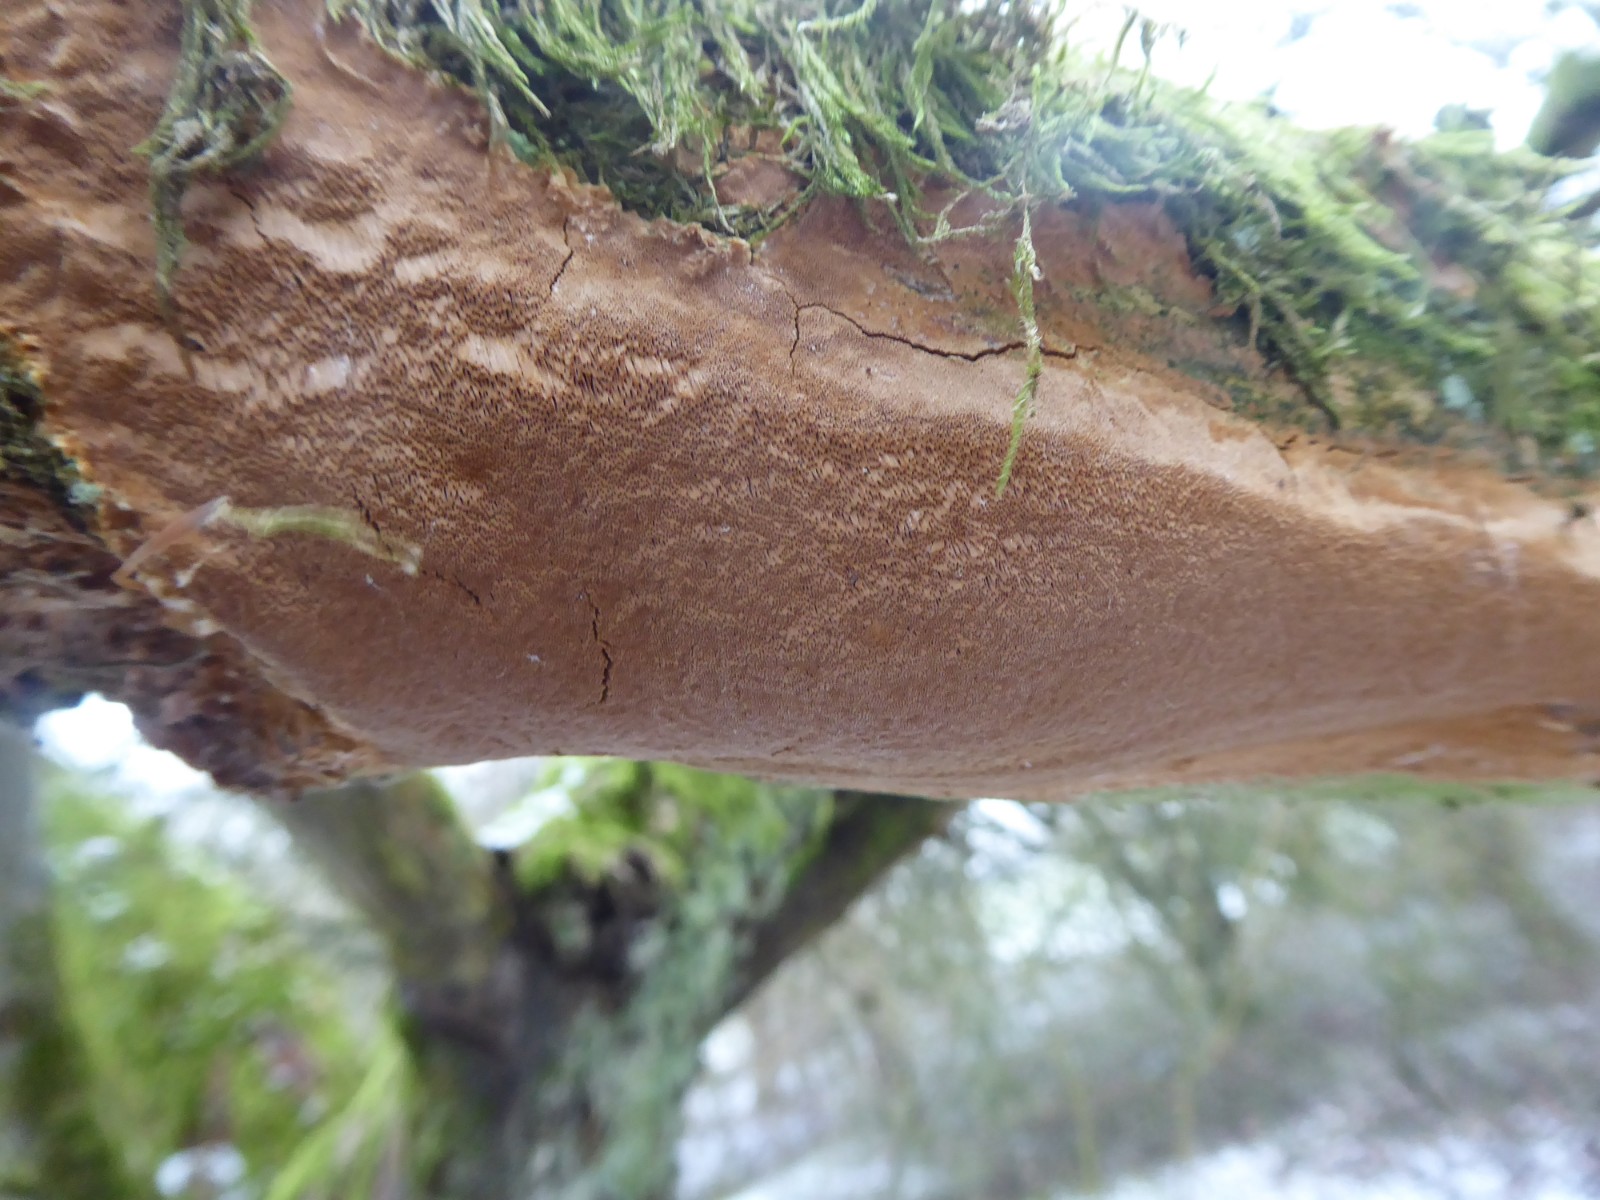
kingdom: Fungi
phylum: Basidiomycota
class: Agaricomycetes
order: Hymenochaetales
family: Hymenochaetaceae
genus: Fuscoporia
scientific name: Fuscoporia ferrea
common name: skorpe-ildporesvamp
